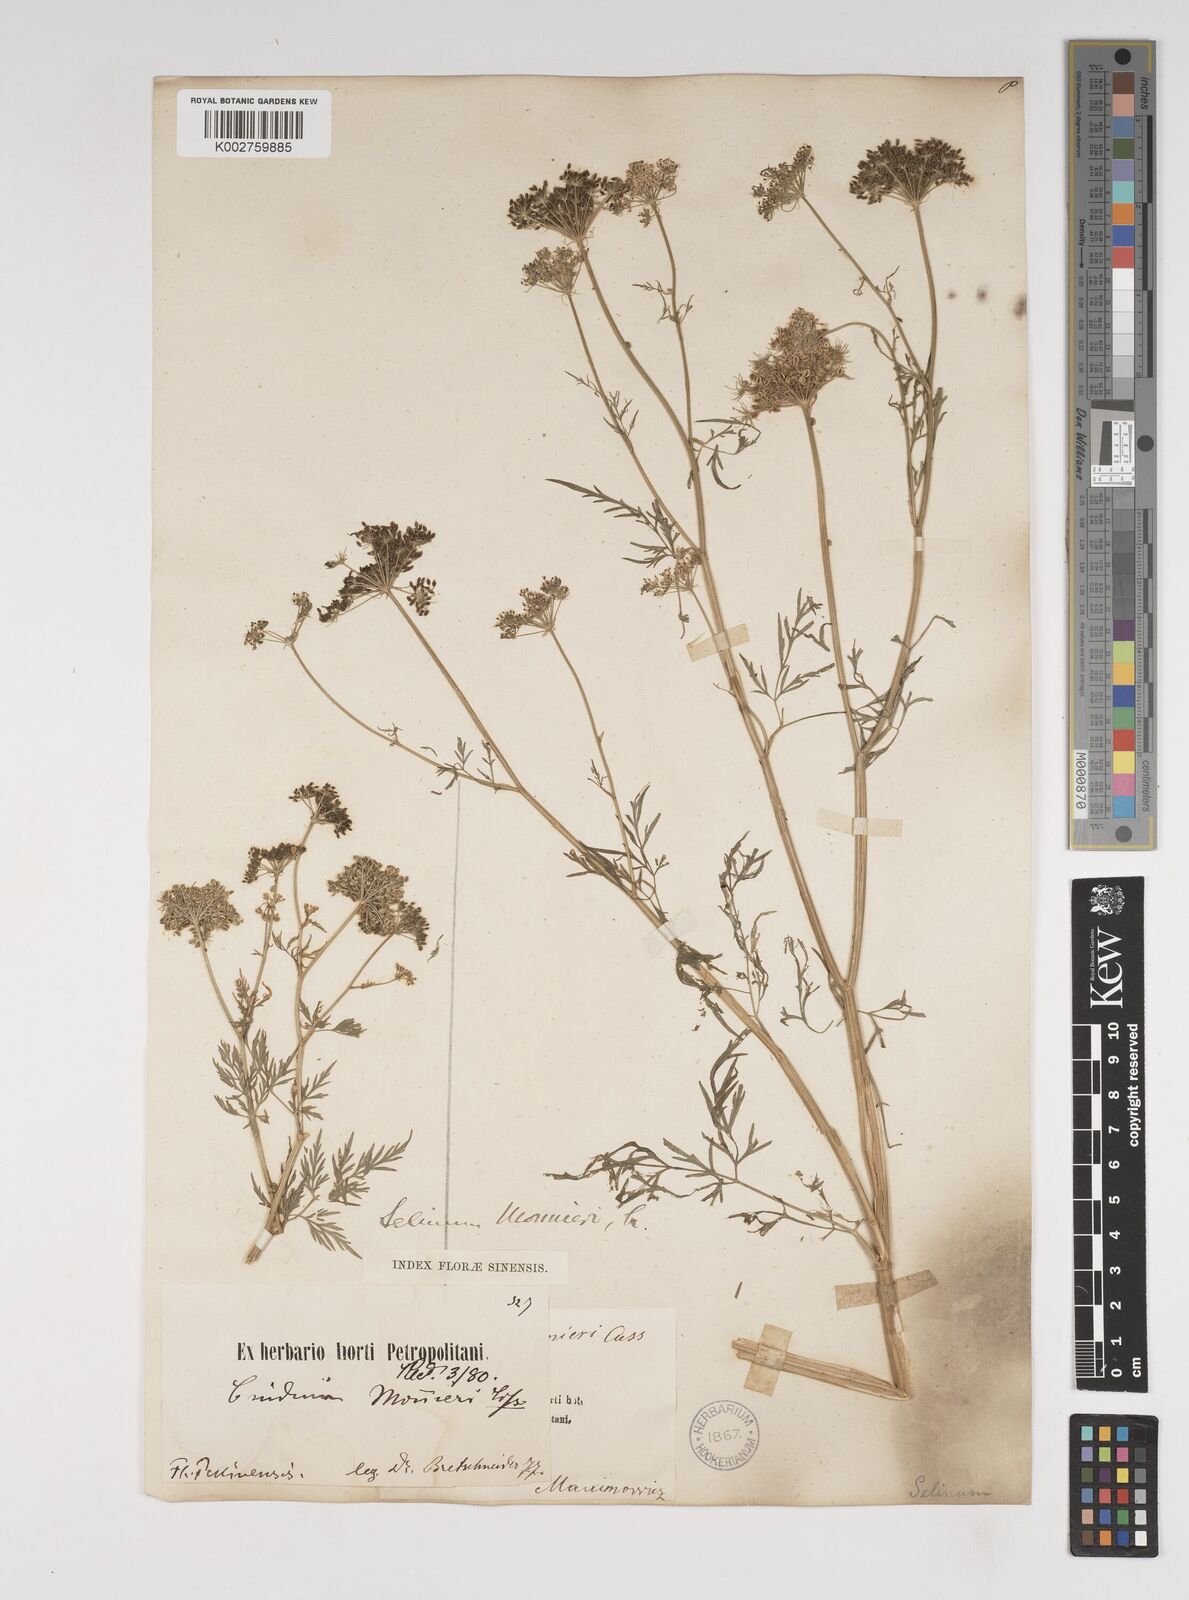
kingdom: Plantae
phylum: Tracheophyta
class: Magnoliopsida
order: Apiales
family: Apiaceae
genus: Cnidium
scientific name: Cnidium monnieri
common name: Monnier's snowparsley
